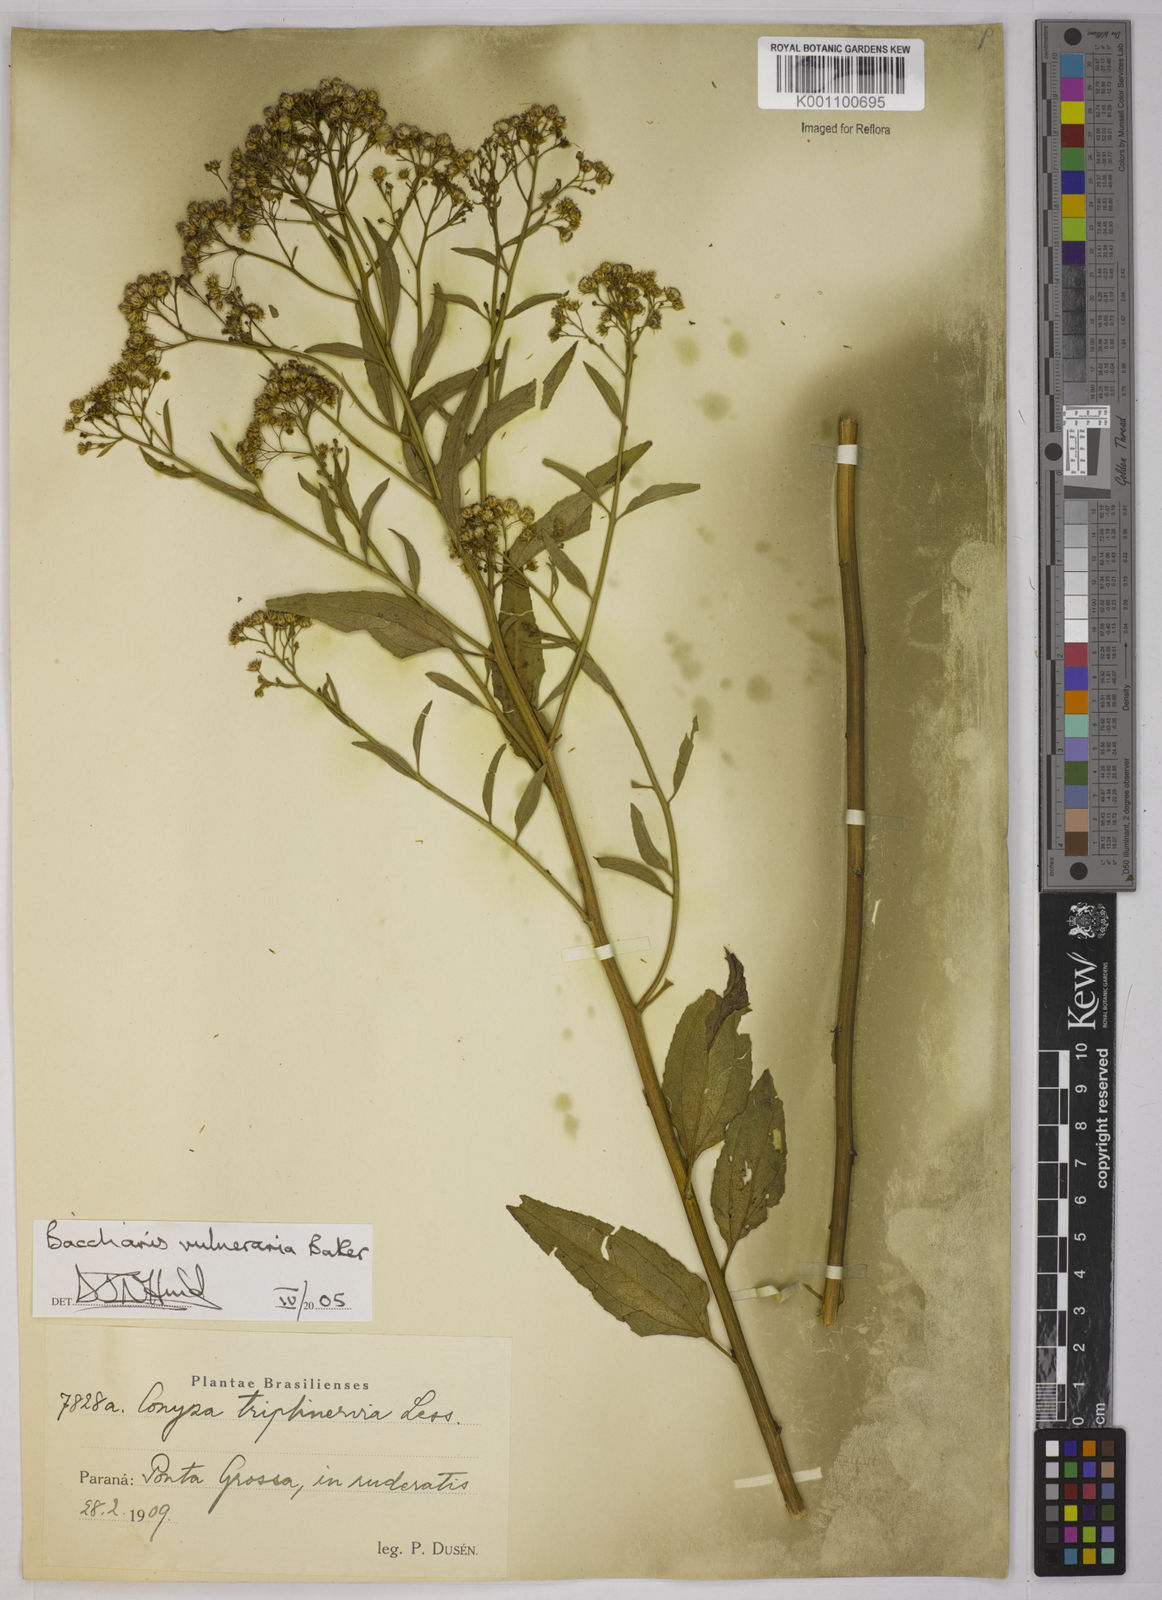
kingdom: Plantae
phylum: Tracheophyta
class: Magnoliopsida
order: Asterales
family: Asteraceae
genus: Archibaccharis
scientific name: Archibaccharis vulneraria
